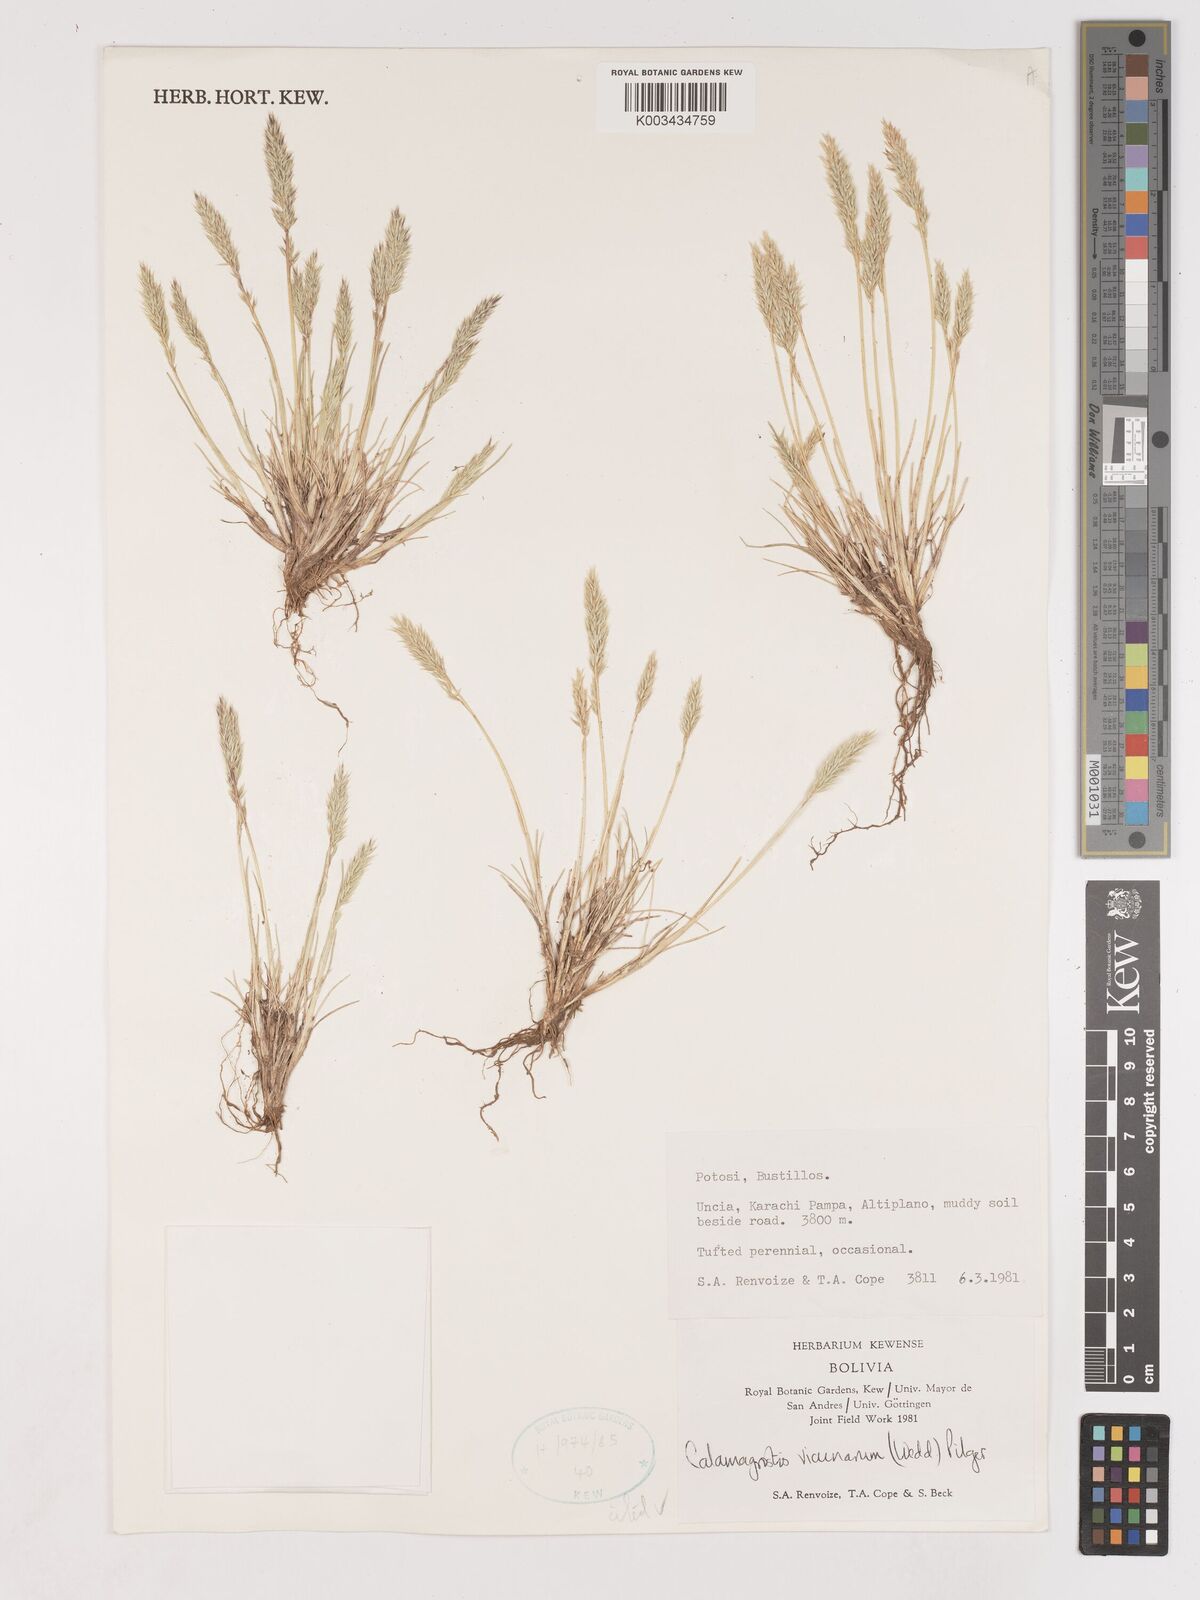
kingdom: Plantae
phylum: Tracheophyta
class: Liliopsida
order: Poales
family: Poaceae
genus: Cinnagrostis
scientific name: Cinnagrostis vicunarum
